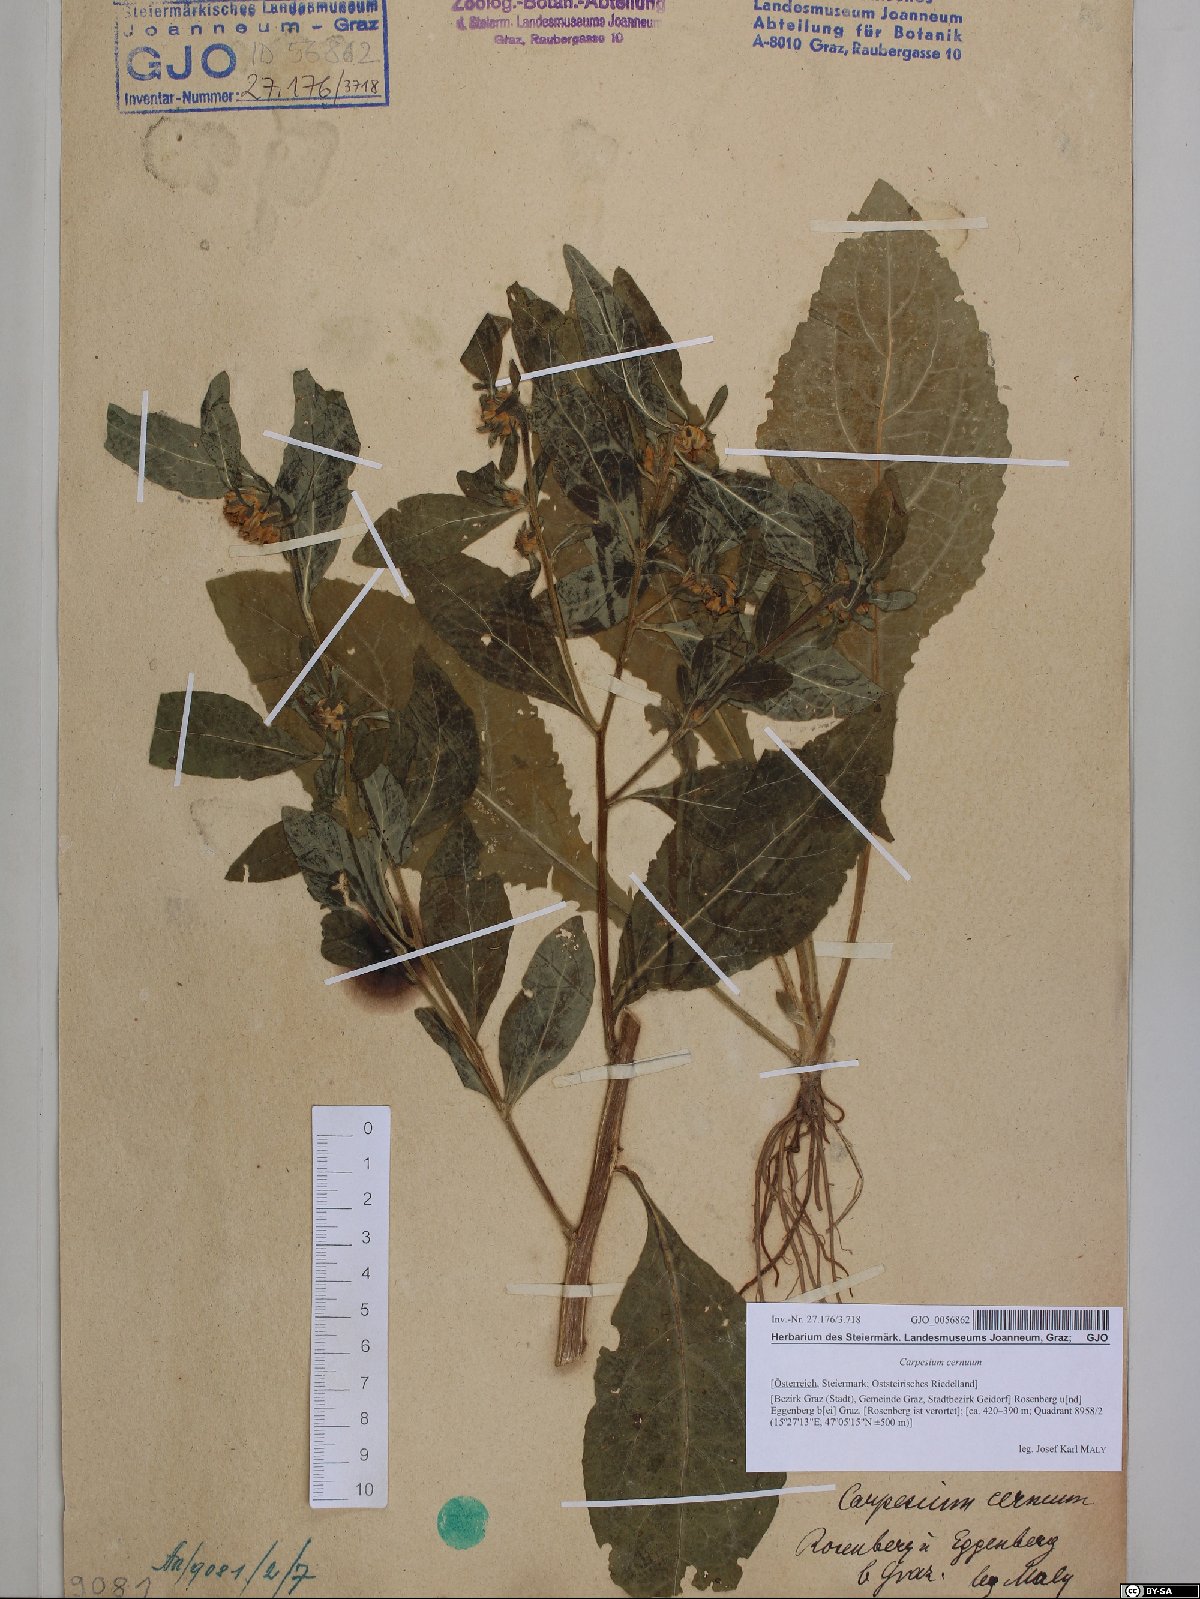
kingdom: Plantae
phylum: Tracheophyta
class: Magnoliopsida
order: Asterales
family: Asteraceae
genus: Carpesium
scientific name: Carpesium cernuum
